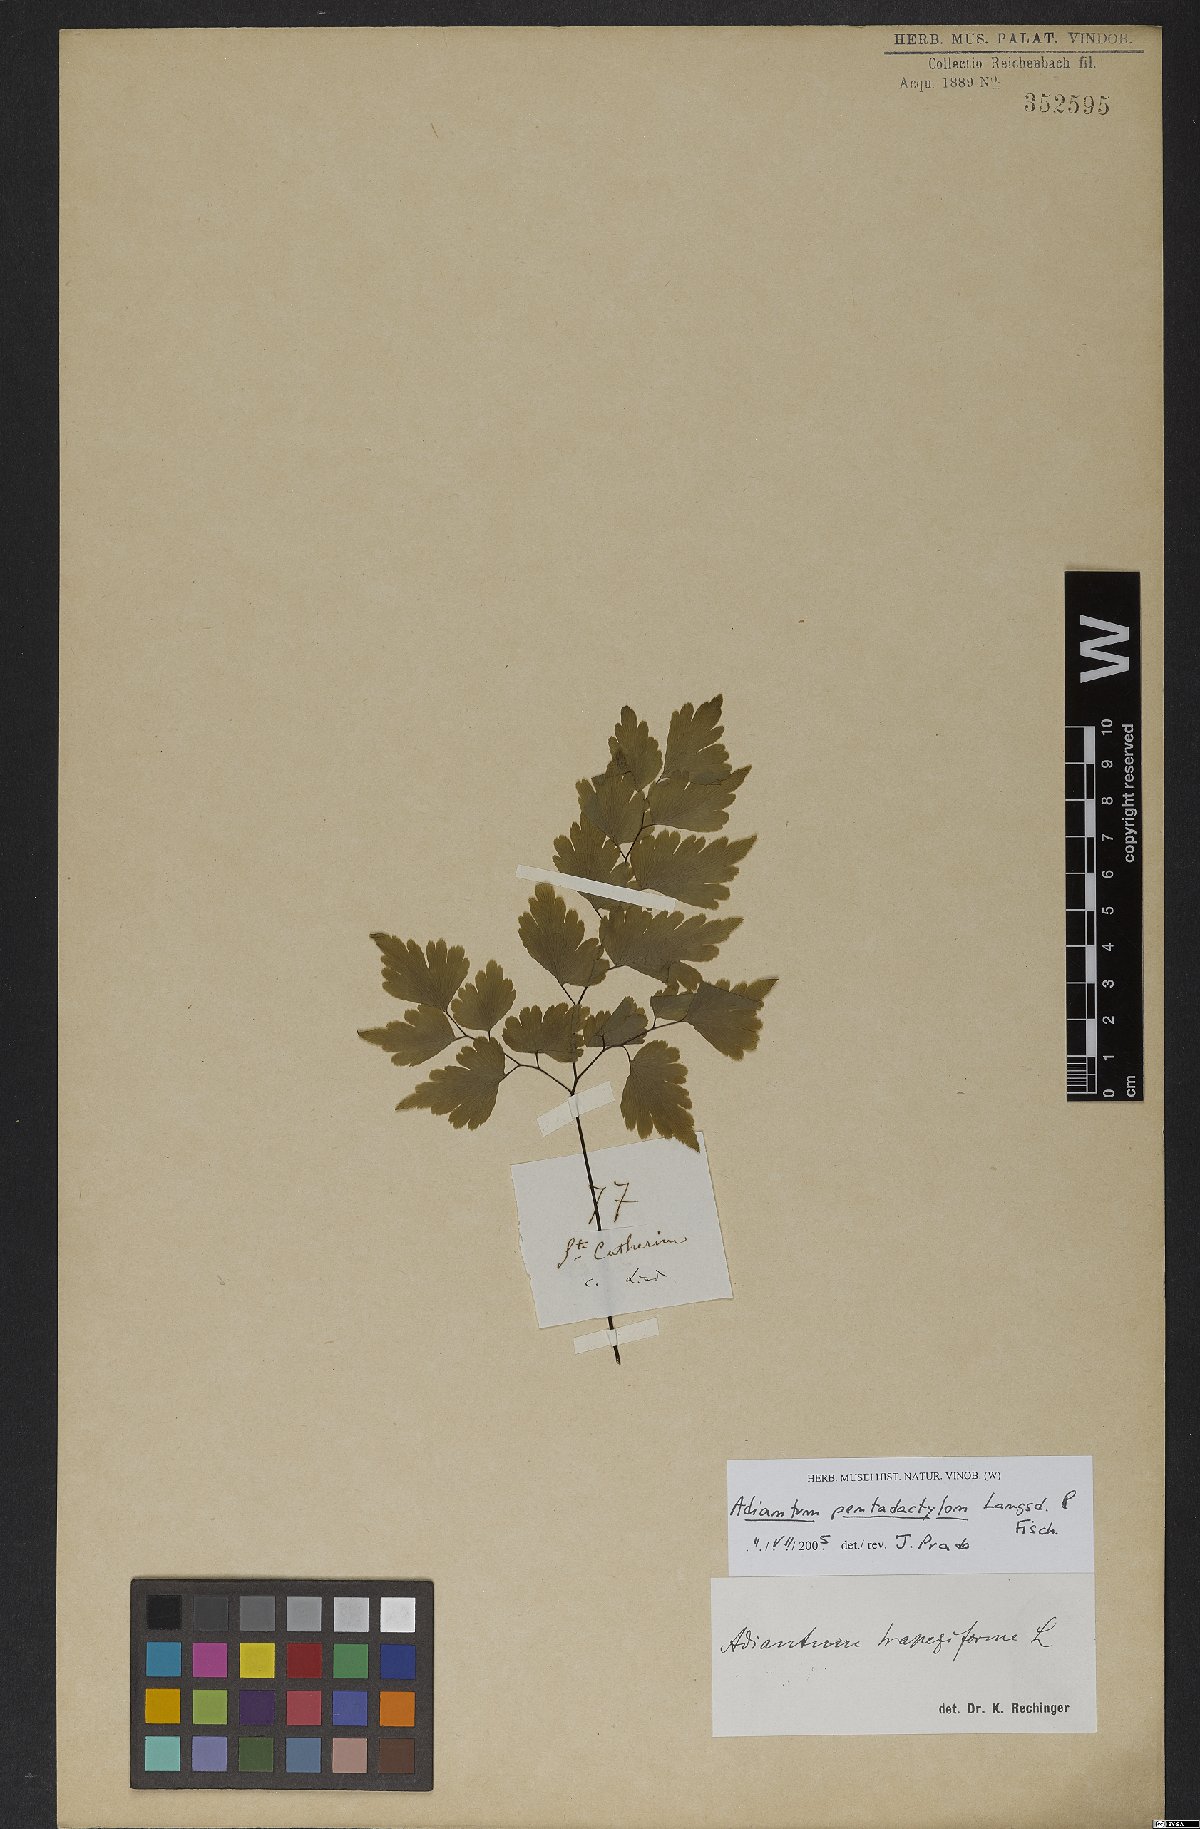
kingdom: Plantae
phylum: Tracheophyta
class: Polypodiopsida
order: Polypodiales
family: Pteridaceae
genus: Adiantum
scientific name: Adiantum pentadactylon
